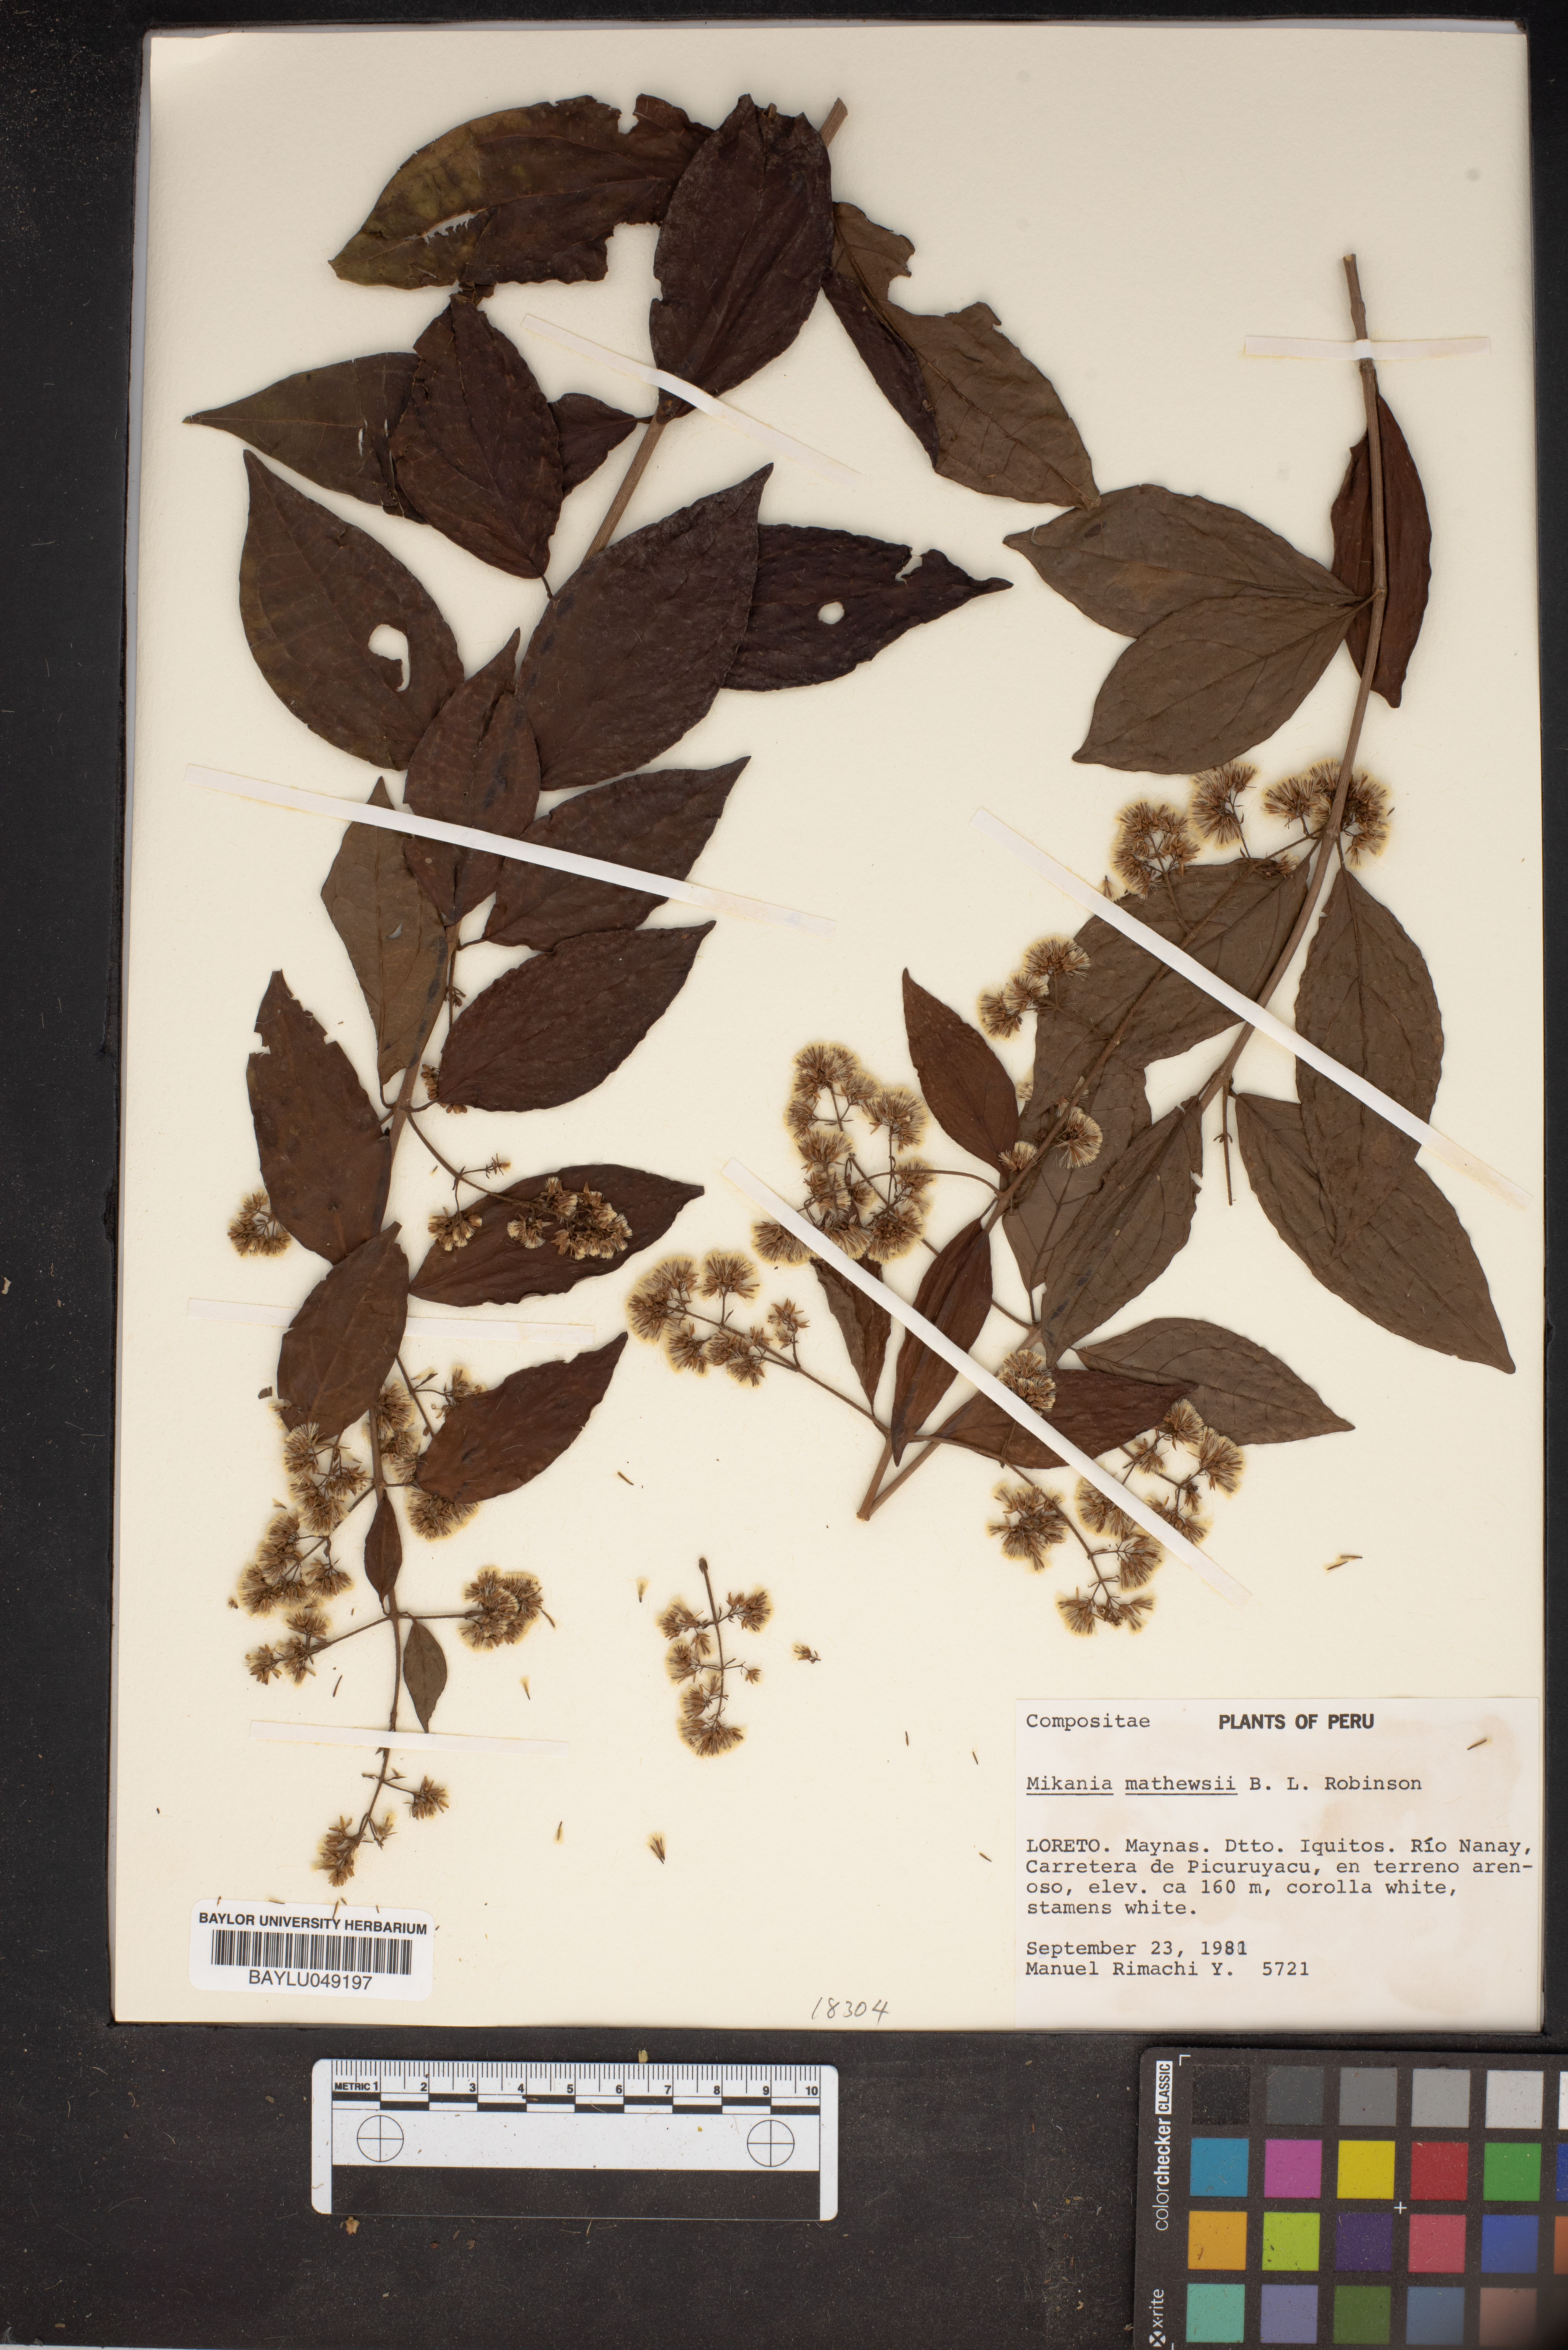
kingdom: Plantae
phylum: Tracheophyta
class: Magnoliopsida
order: Asterales
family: Asteraceae
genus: Mikania
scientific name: Mikania mathewsii
